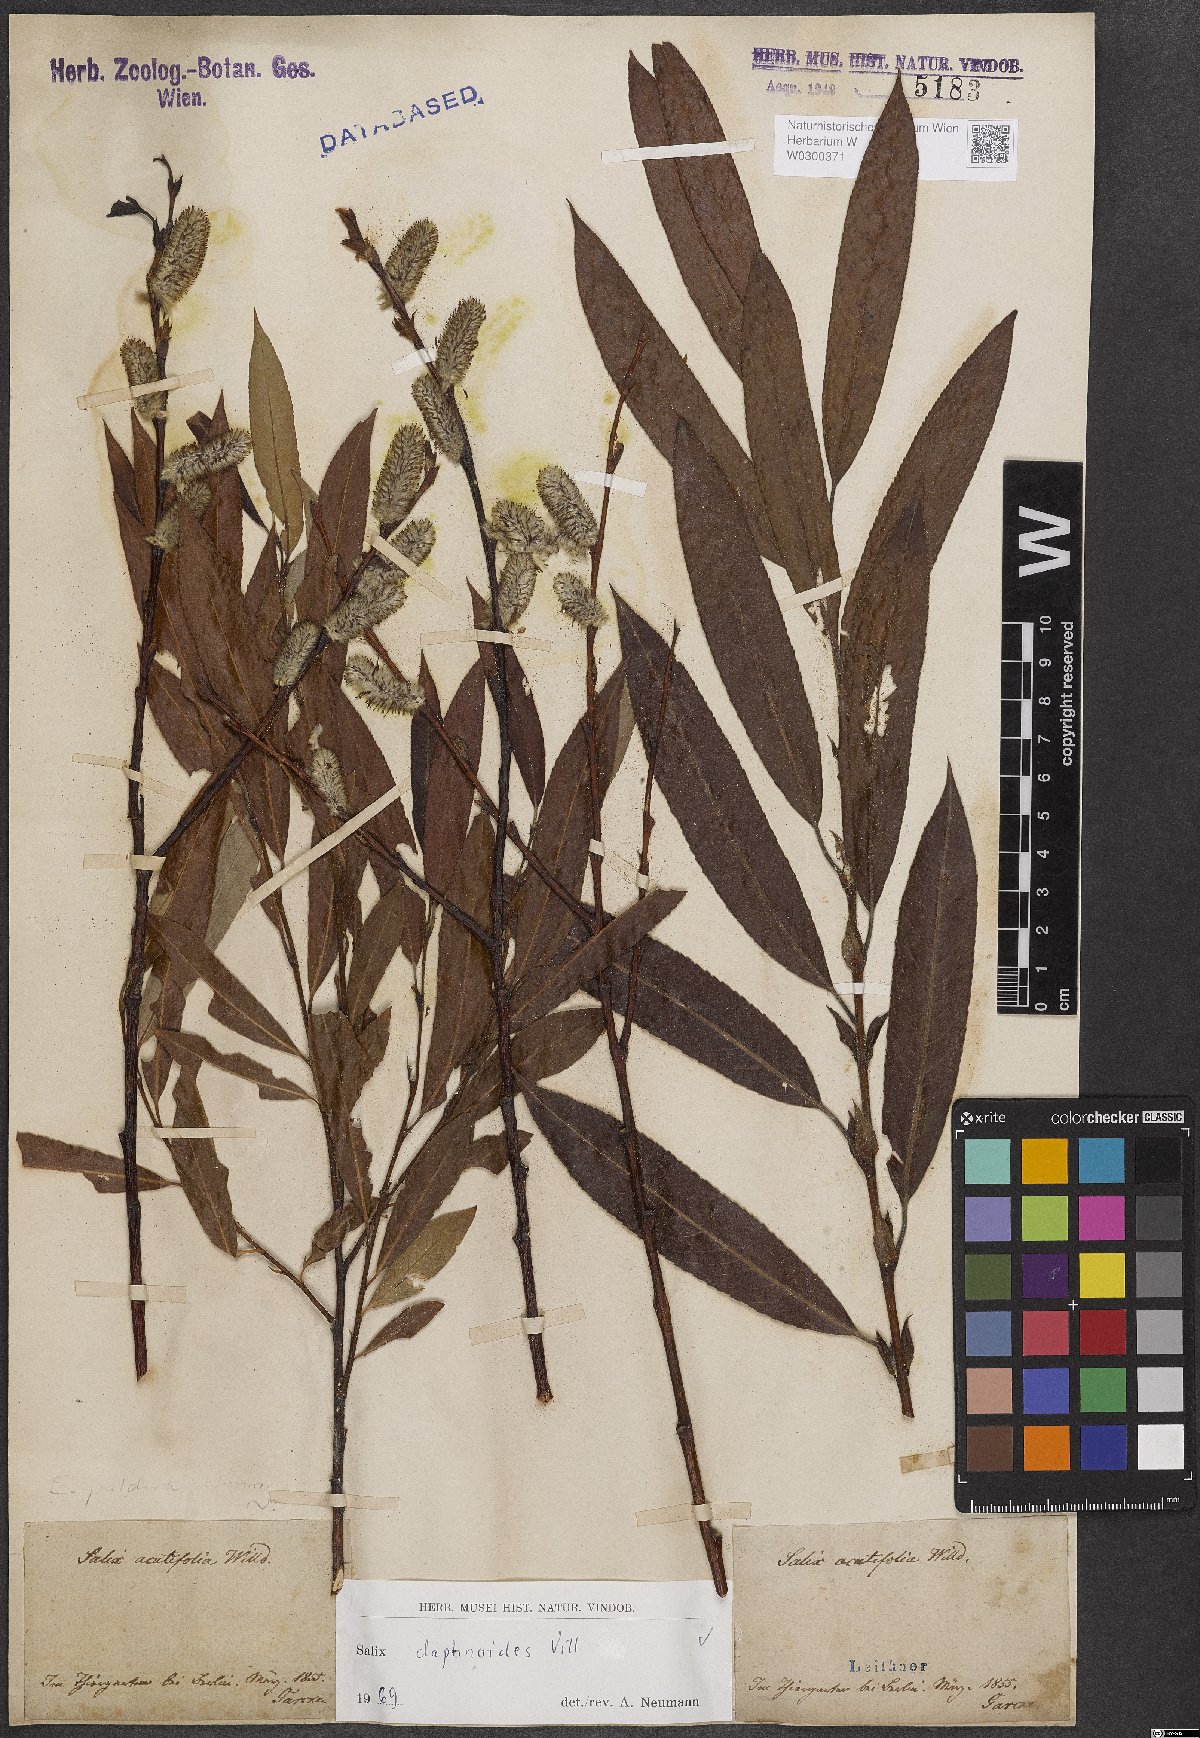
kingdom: Plantae
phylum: Tracheophyta
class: Magnoliopsida
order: Malpighiales
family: Salicaceae
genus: Salix
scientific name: Salix daphnoides
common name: European violet-willow
